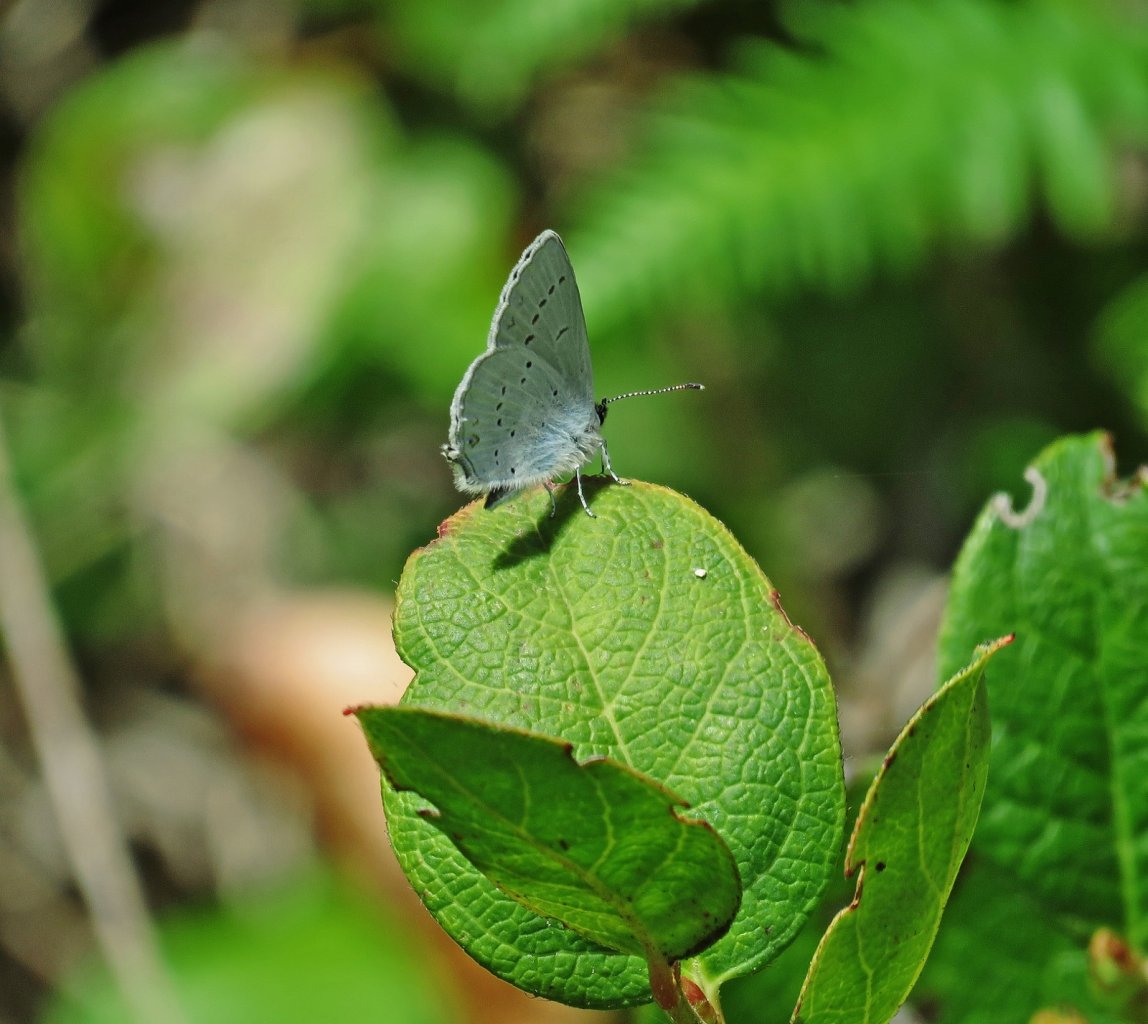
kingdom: Animalia
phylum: Arthropoda
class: Insecta
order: Lepidoptera
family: Lycaenidae
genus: Elkalyce
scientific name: Elkalyce amyntula
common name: Western Tailed-Blue
